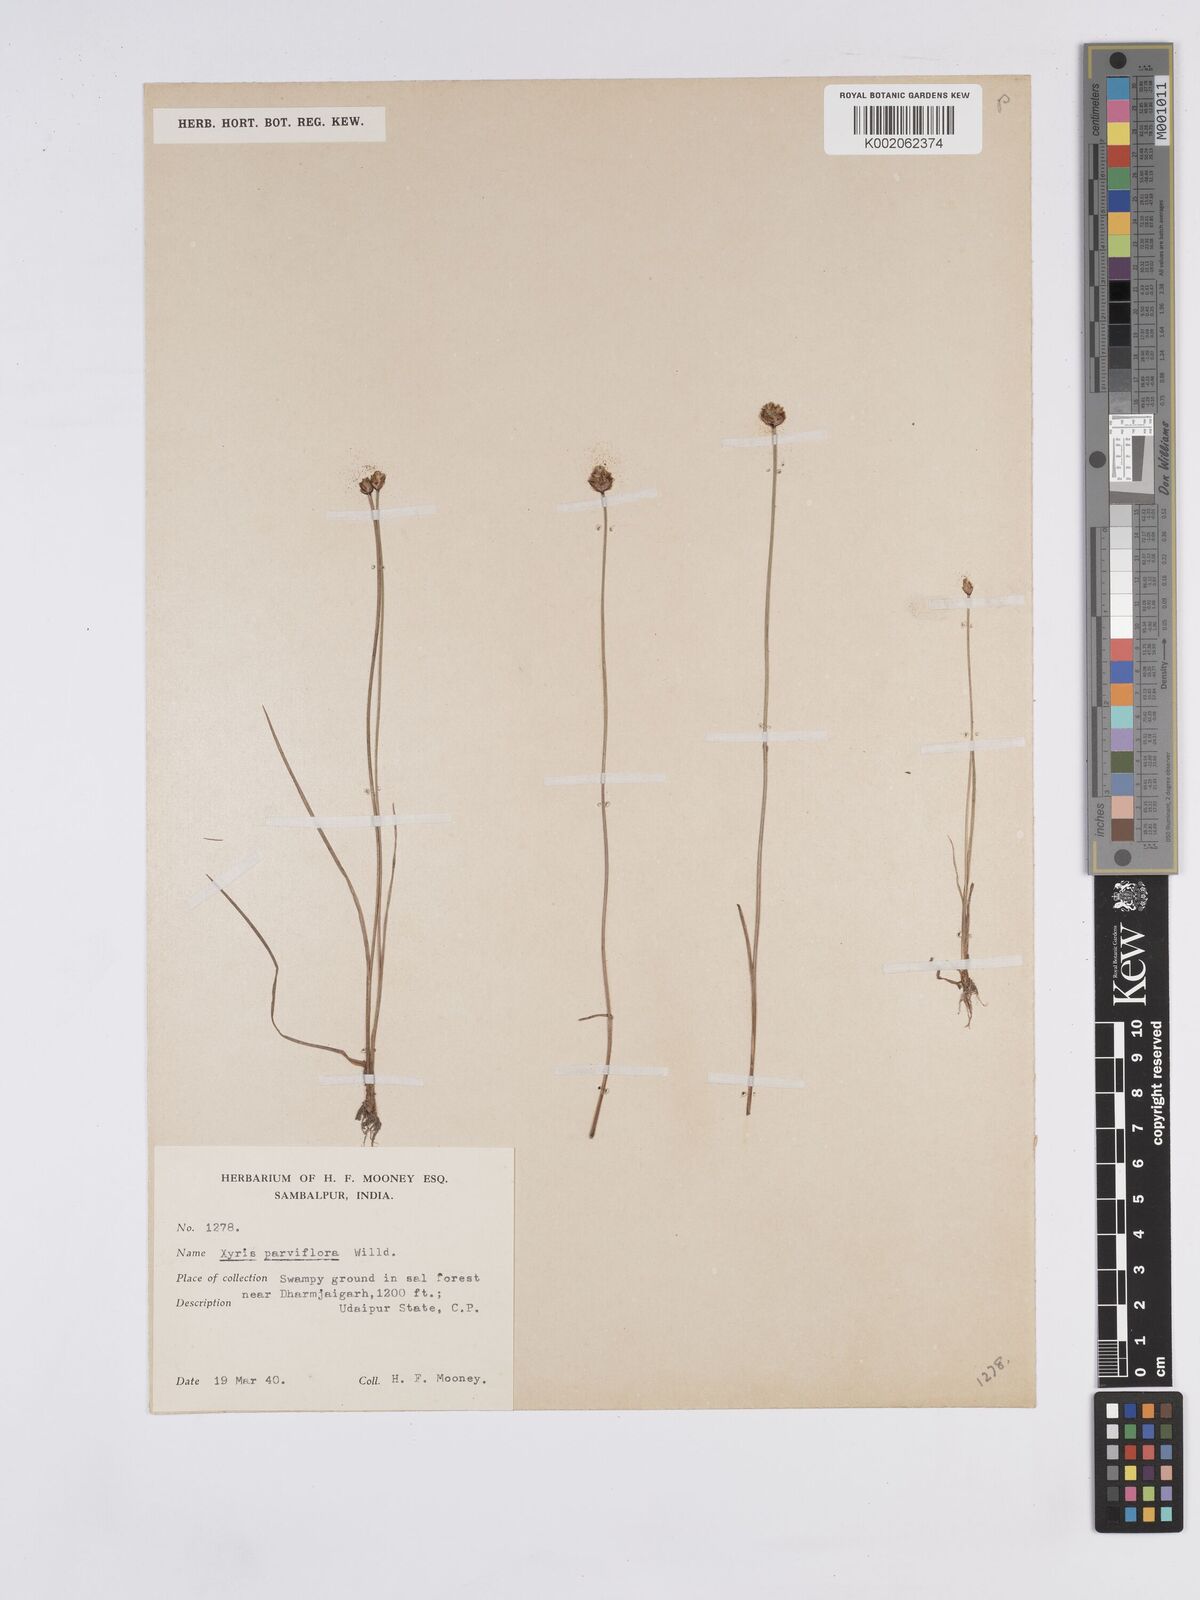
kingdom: Plantae
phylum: Tracheophyta
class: Liliopsida
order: Poales
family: Xyridaceae
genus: Xyris
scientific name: Xyris pauciflora
